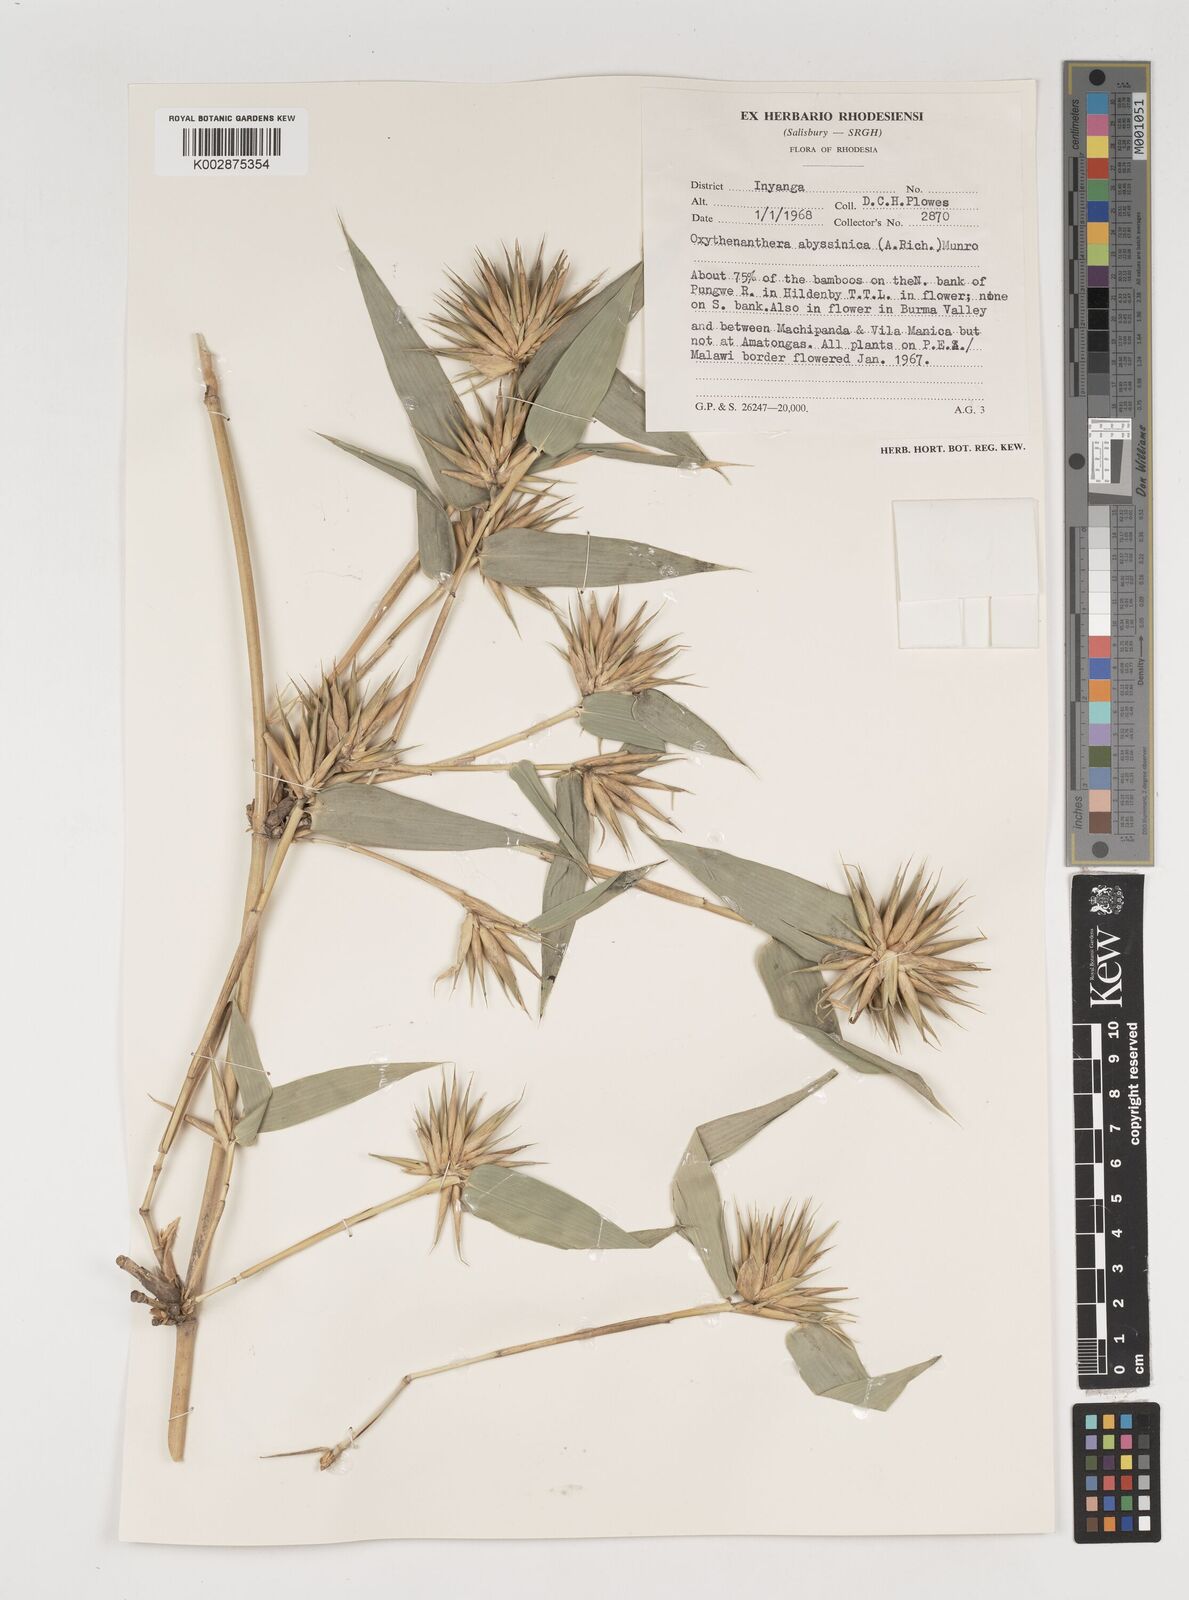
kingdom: Plantae
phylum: Tracheophyta
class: Liliopsida
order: Poales
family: Poaceae
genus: Oxytenanthera
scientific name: Oxytenanthera abyssinica
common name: Wine bamboo
